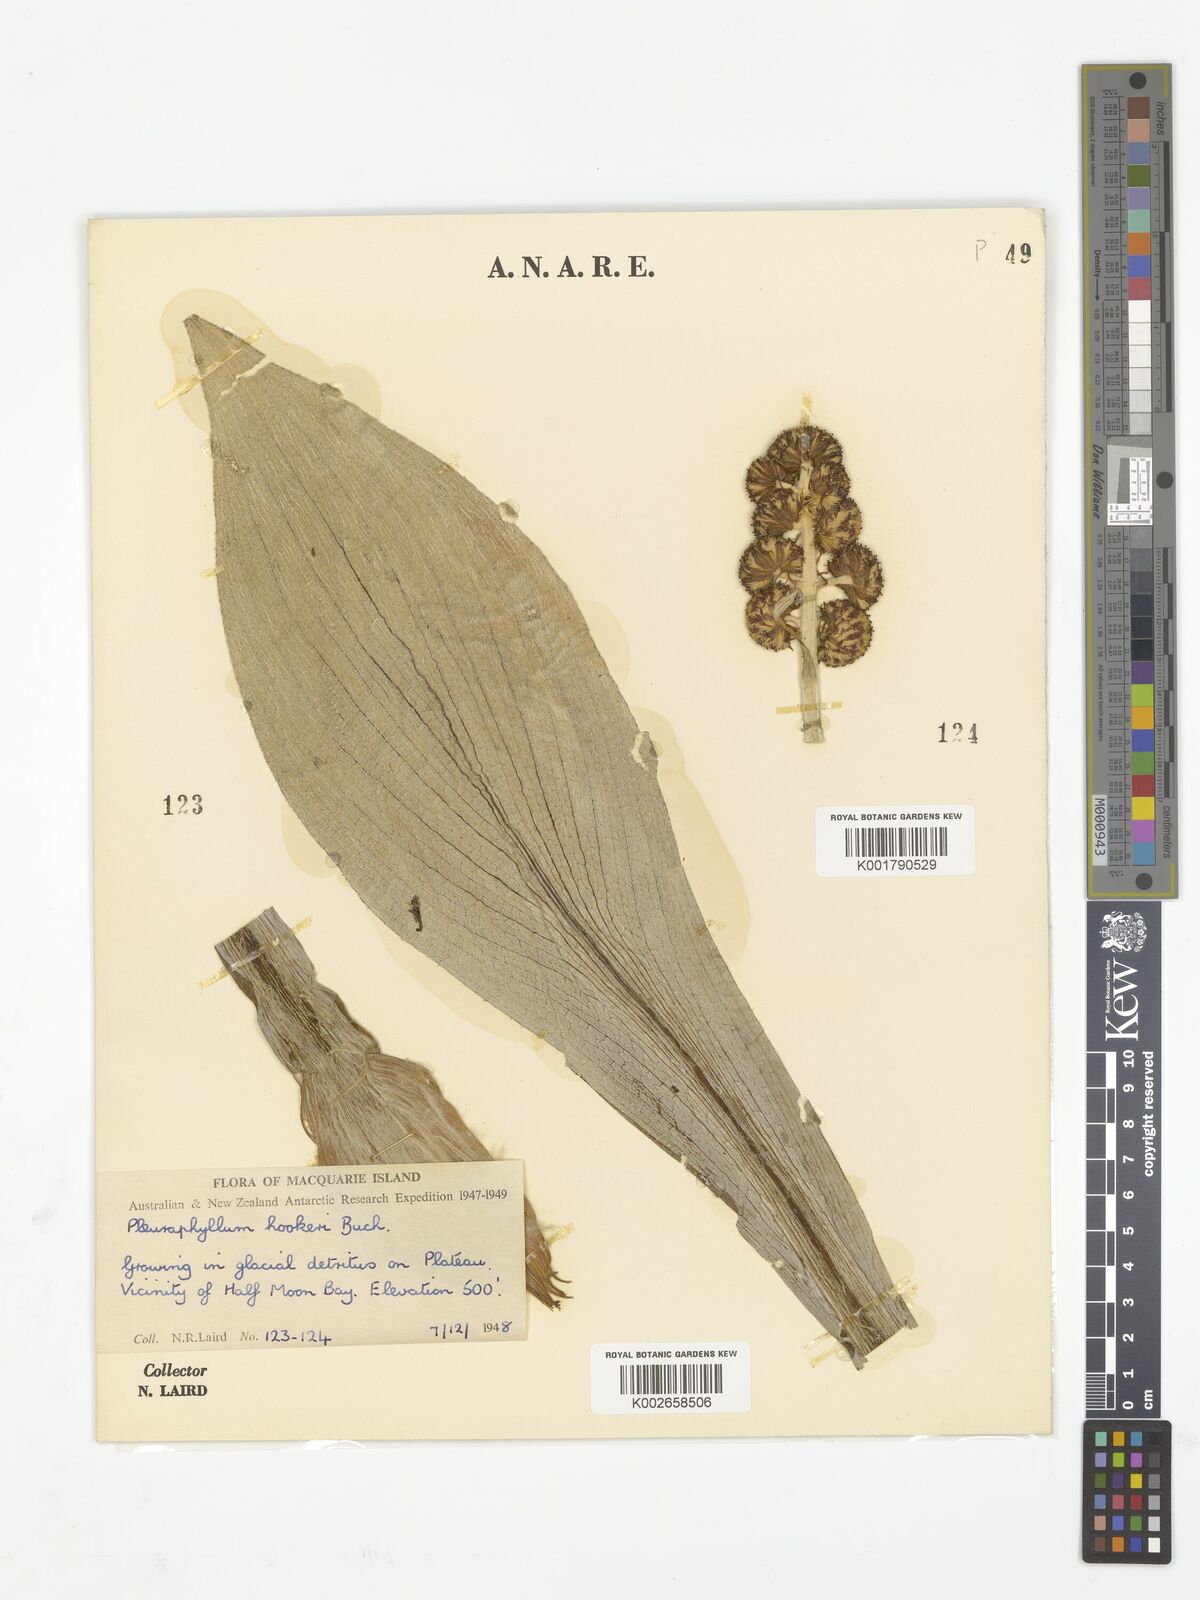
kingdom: Plantae
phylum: Tracheophyta
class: Magnoliopsida
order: Asterales
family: Asteraceae
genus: Pleurophyllum
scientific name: Pleurophyllum hookeri
